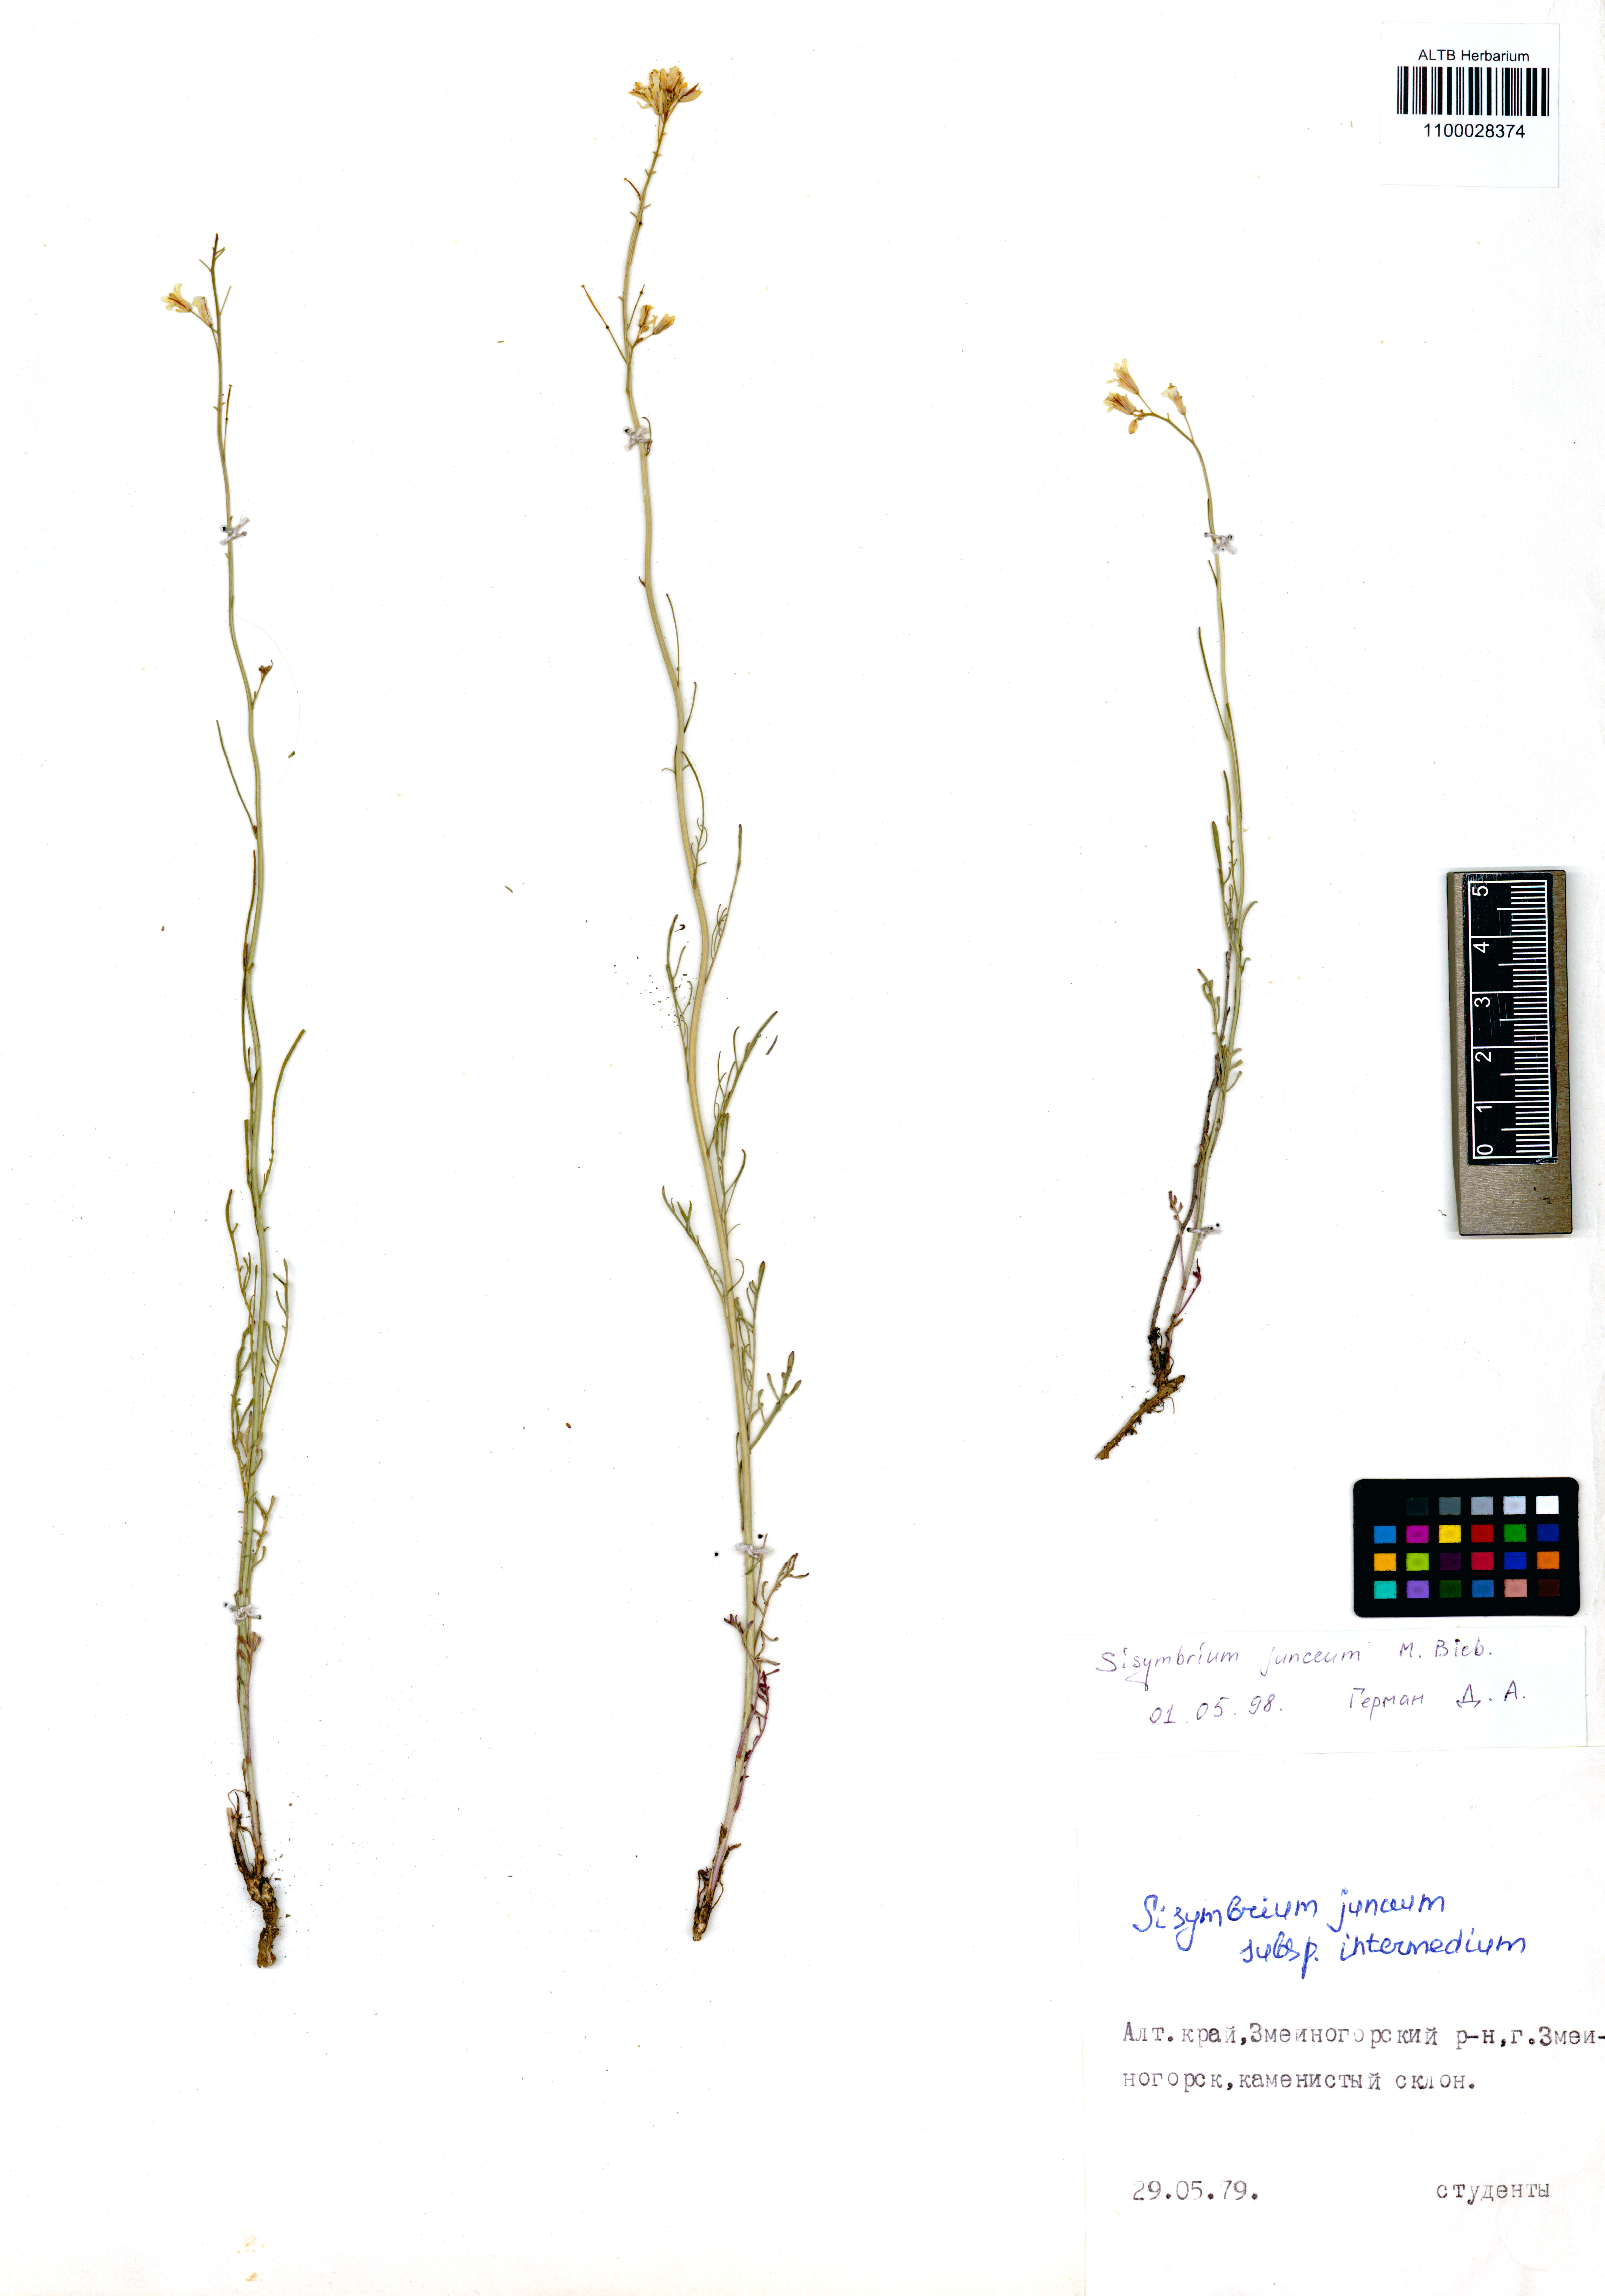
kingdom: Plantae
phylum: Tracheophyta
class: Magnoliopsida
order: Brassicales
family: Brassicaceae
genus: Sisymbrium
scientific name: Sisymbrium polymorphum
